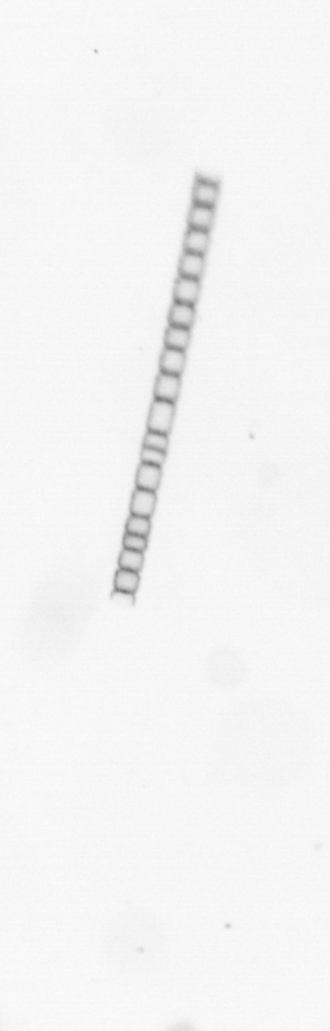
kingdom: Chromista
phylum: Ochrophyta
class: Bacillariophyceae
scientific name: Bacillariophyceae
